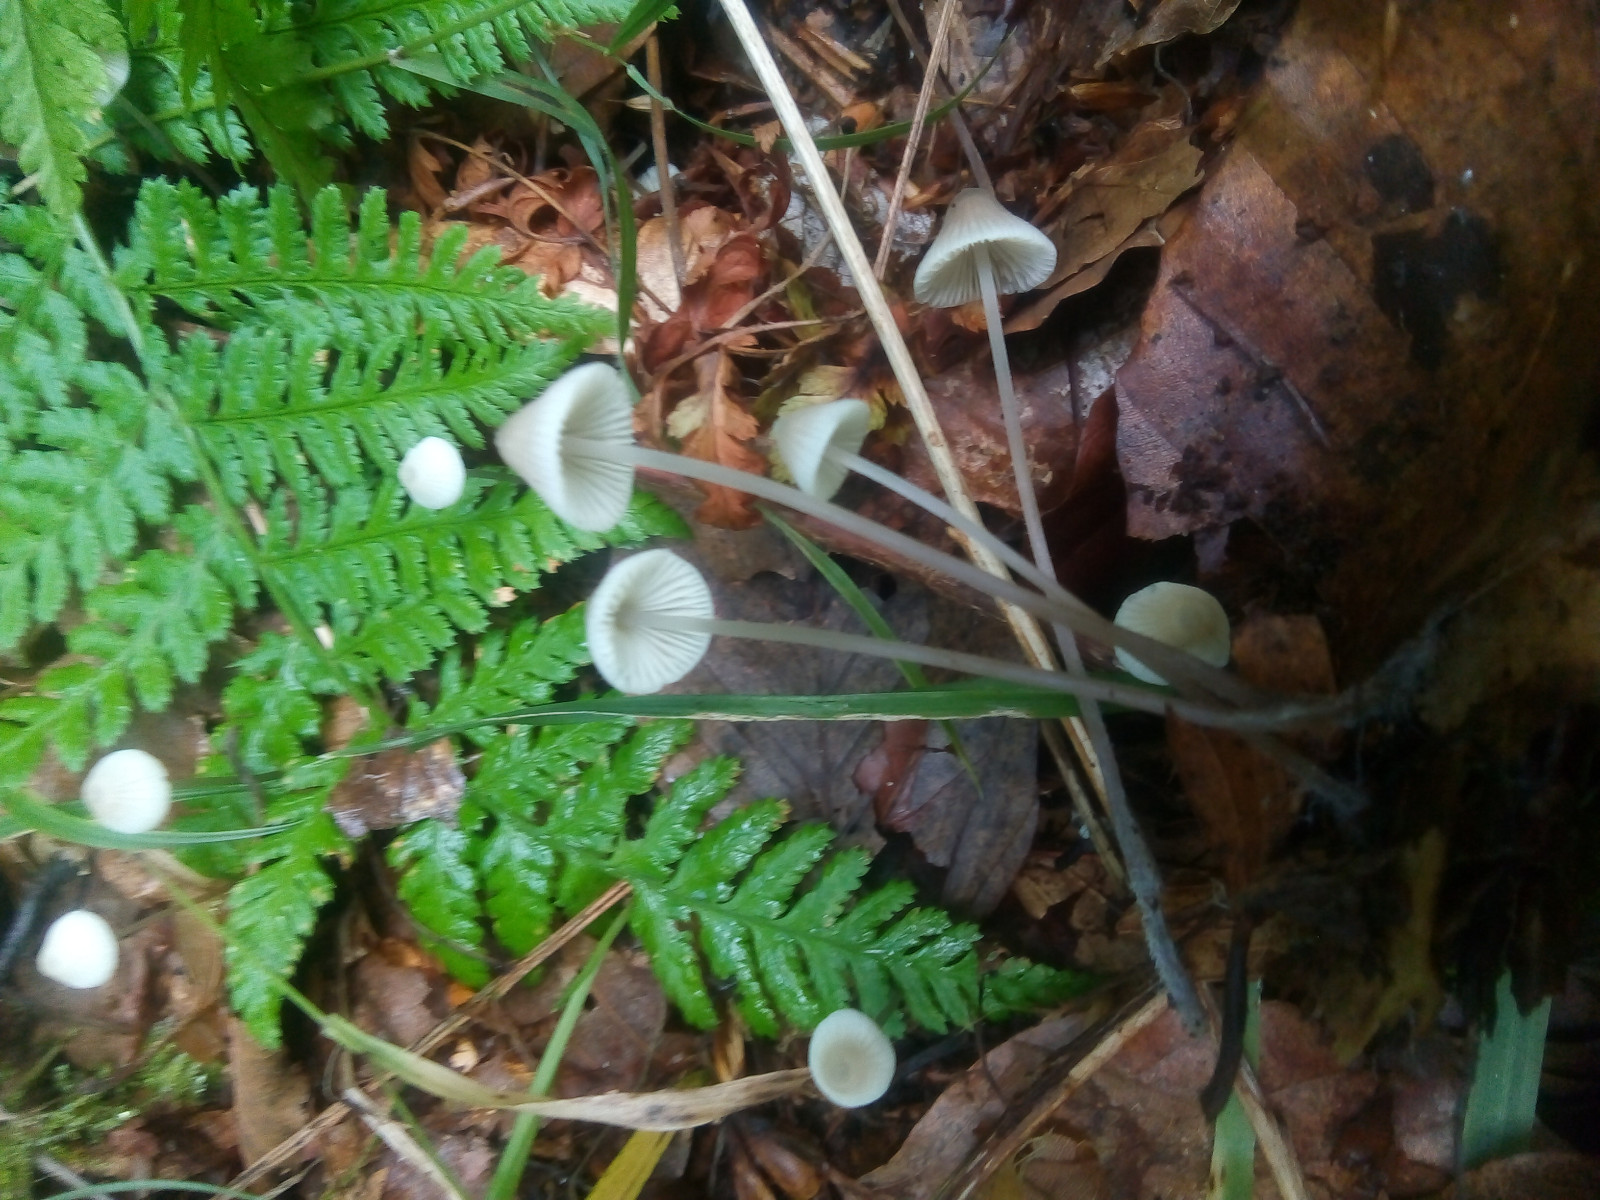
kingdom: Fungi
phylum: Basidiomycota
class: Agaricomycetes
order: Agaricales
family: Mycenaceae
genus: Mycena
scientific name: Mycena flavescens
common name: grågul huesvamp
